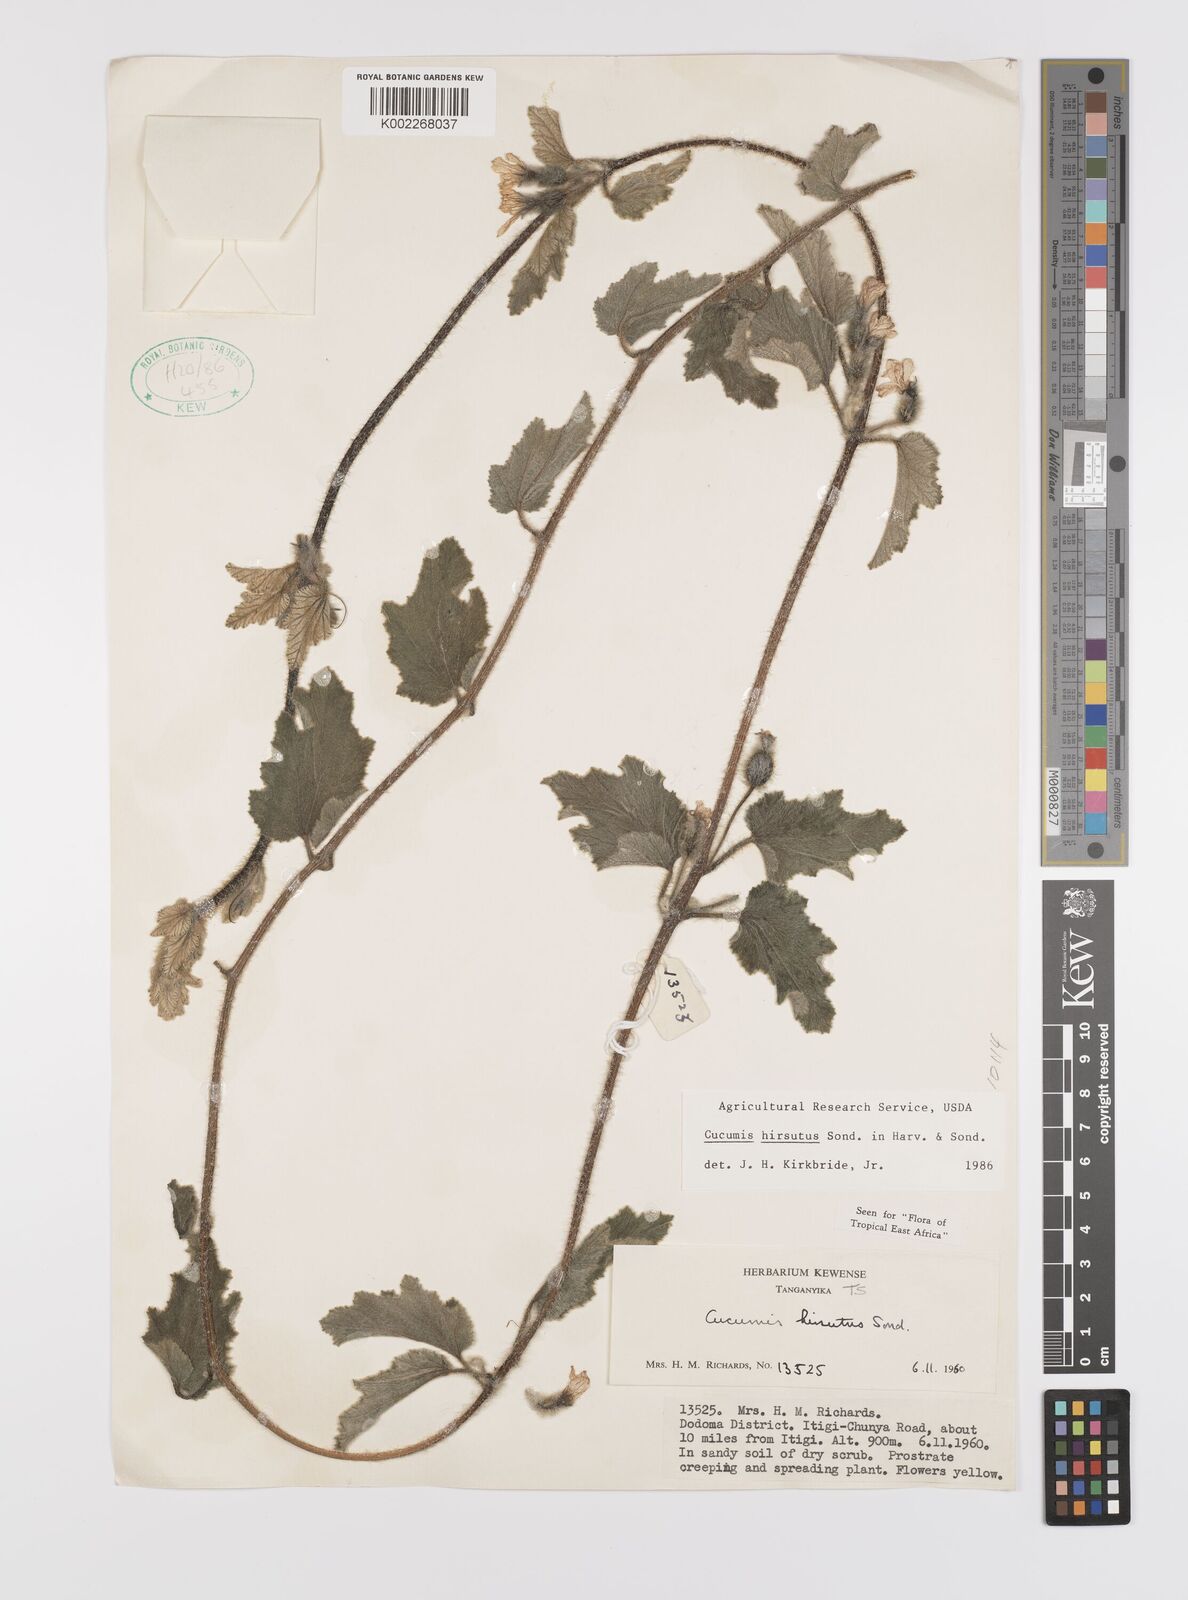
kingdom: Plantae
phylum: Tracheophyta
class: Magnoliopsida
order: Cucurbitales
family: Cucurbitaceae
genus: Cucumis
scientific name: Cucumis hirsutus
